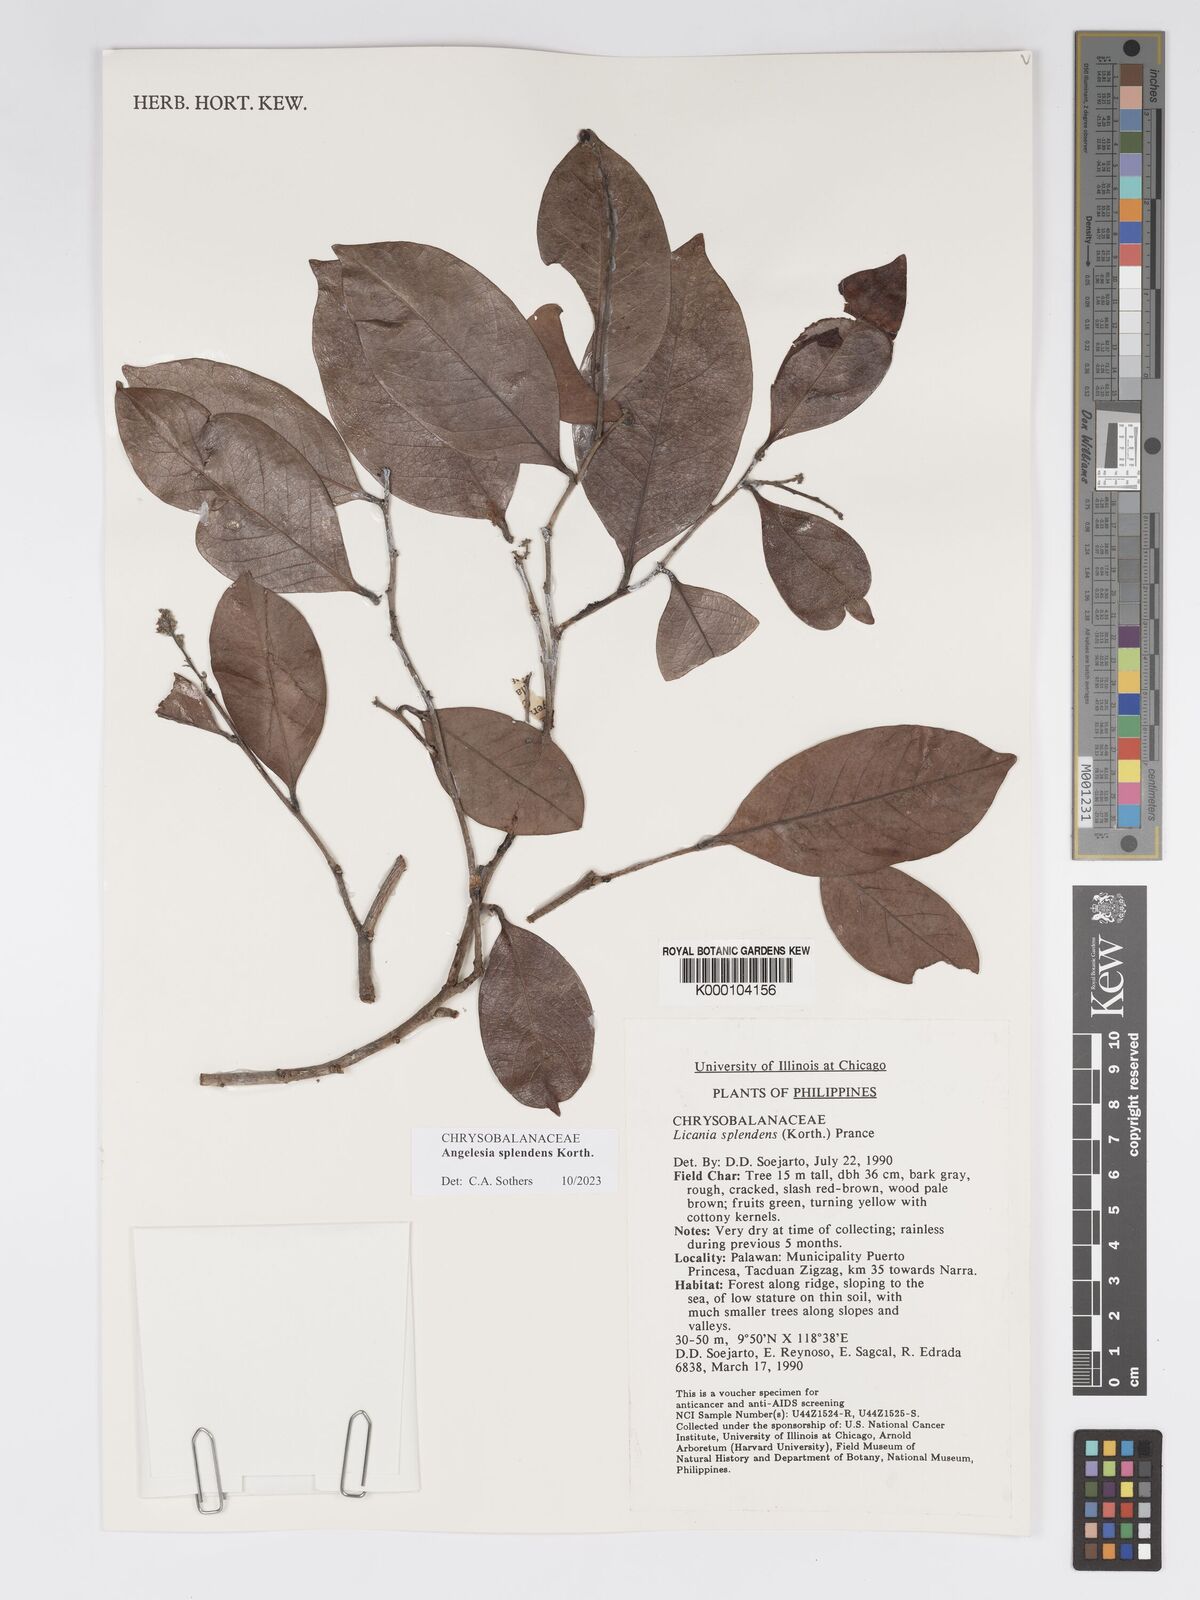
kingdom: Plantae
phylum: Tracheophyta
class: Magnoliopsida
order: Malpighiales
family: Chrysobalanaceae
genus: Angelesia
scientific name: Angelesia splendens
